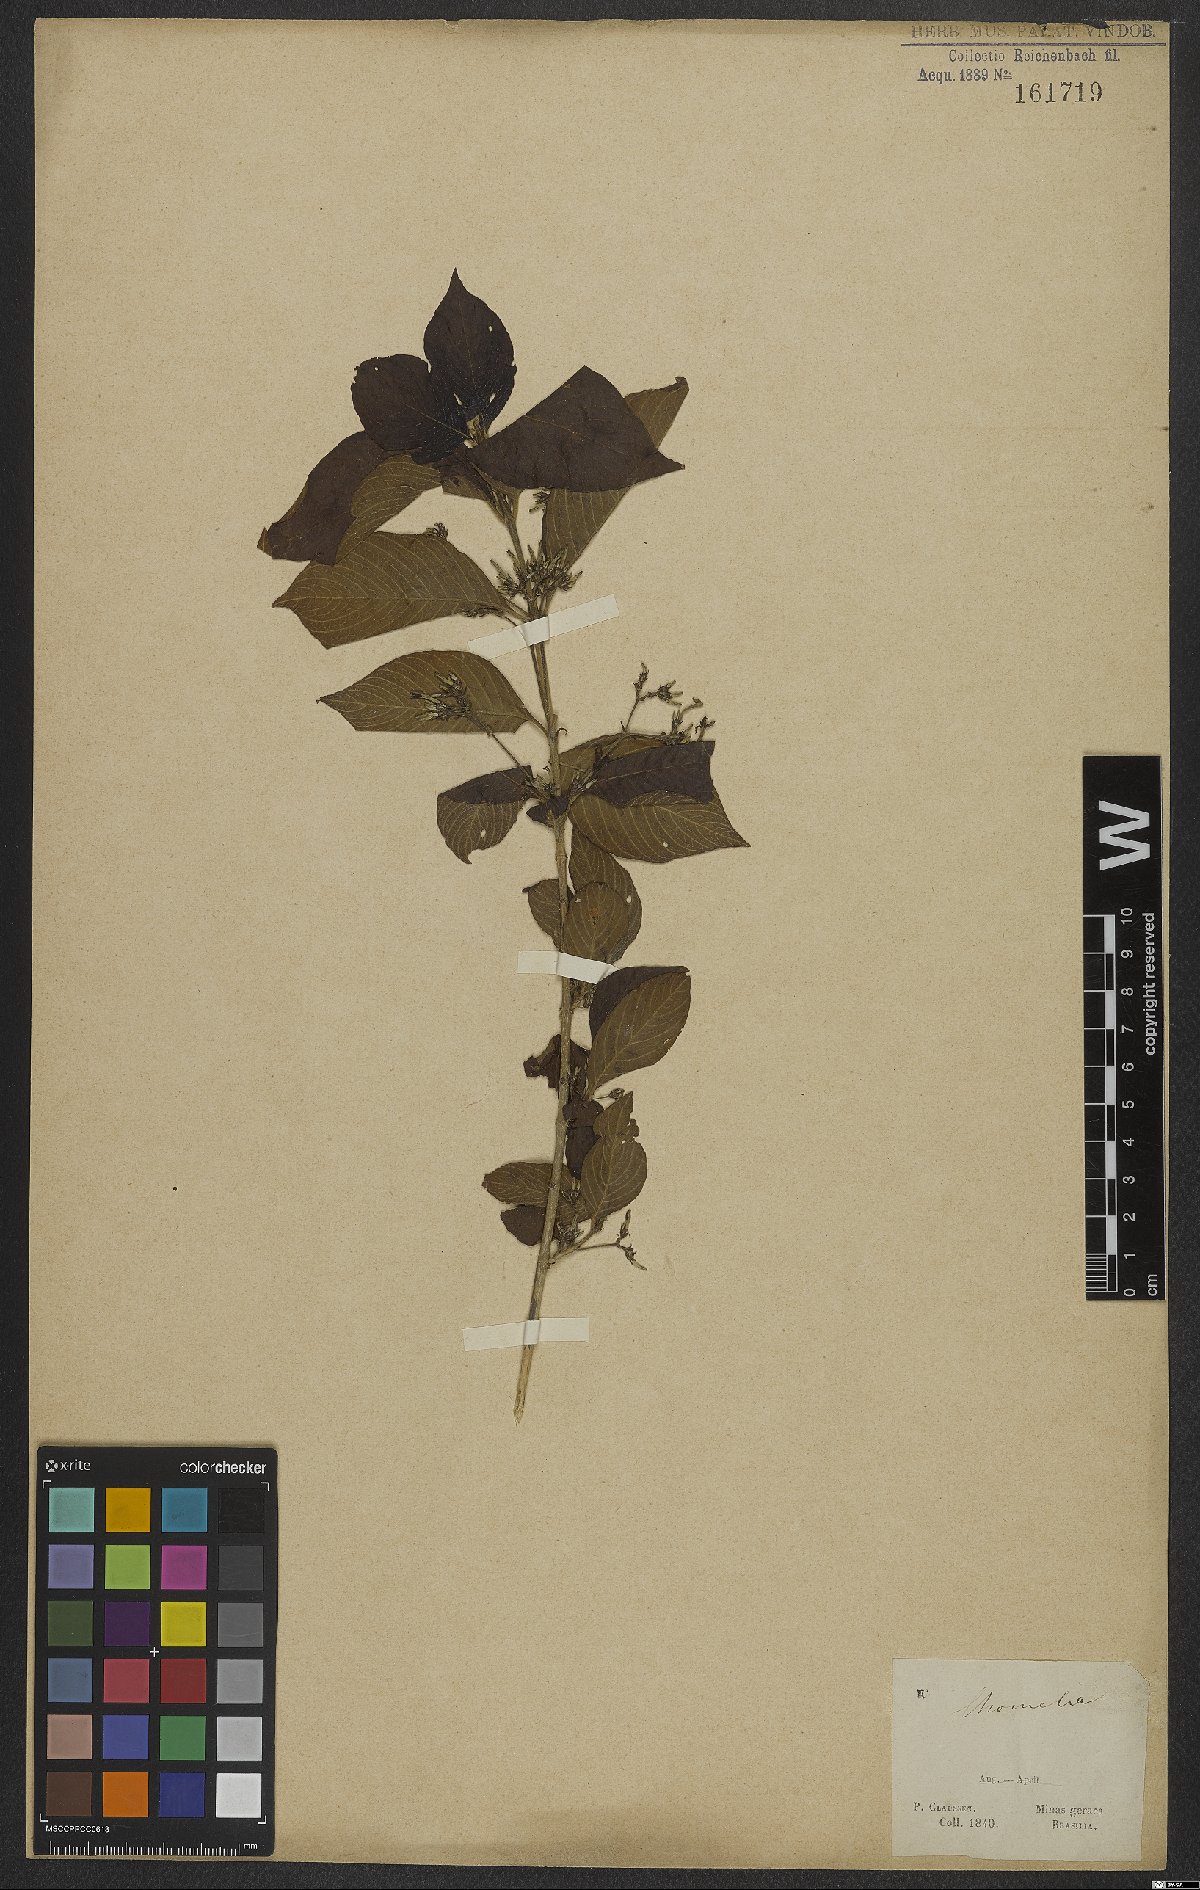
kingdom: Plantae
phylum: Tracheophyta
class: Magnoliopsida
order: Gentianales
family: Rubiaceae
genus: Chomelia
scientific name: Chomelia
